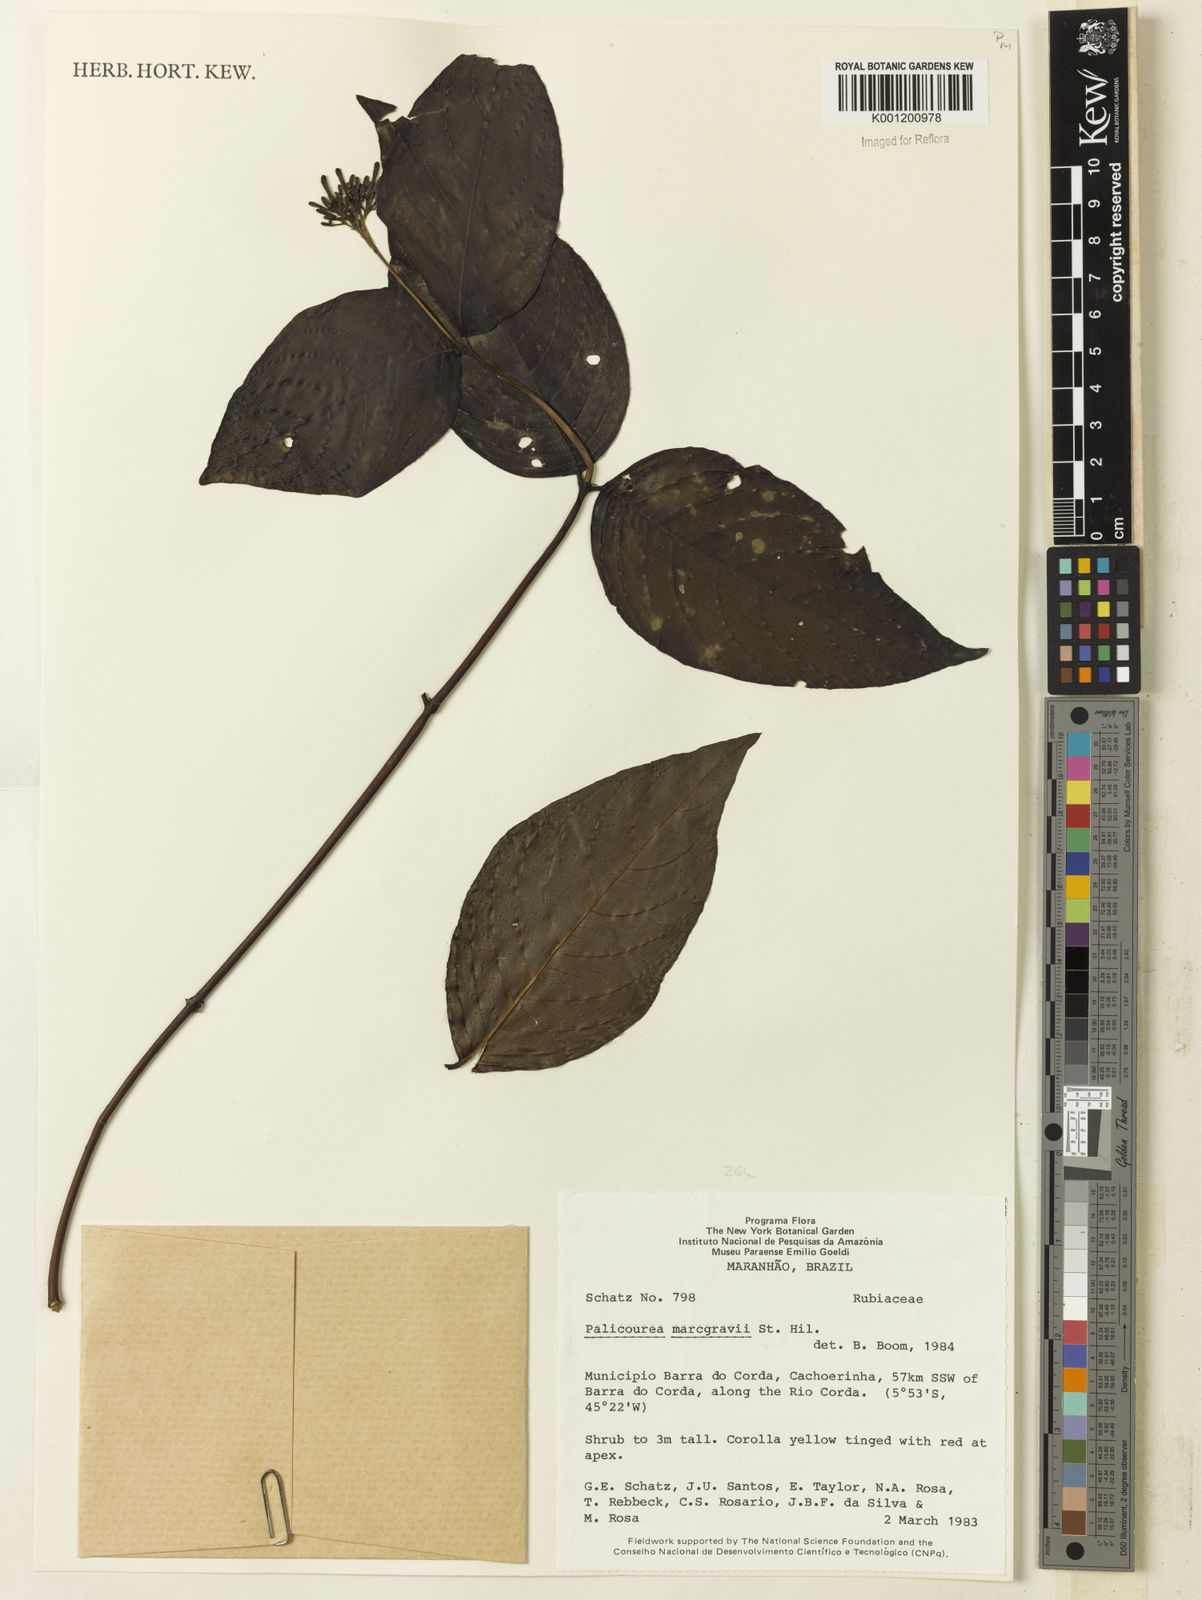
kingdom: Plantae
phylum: Tracheophyta
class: Magnoliopsida
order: Gentianales
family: Rubiaceae
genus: Palicourea
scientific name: Palicourea marcgravii
